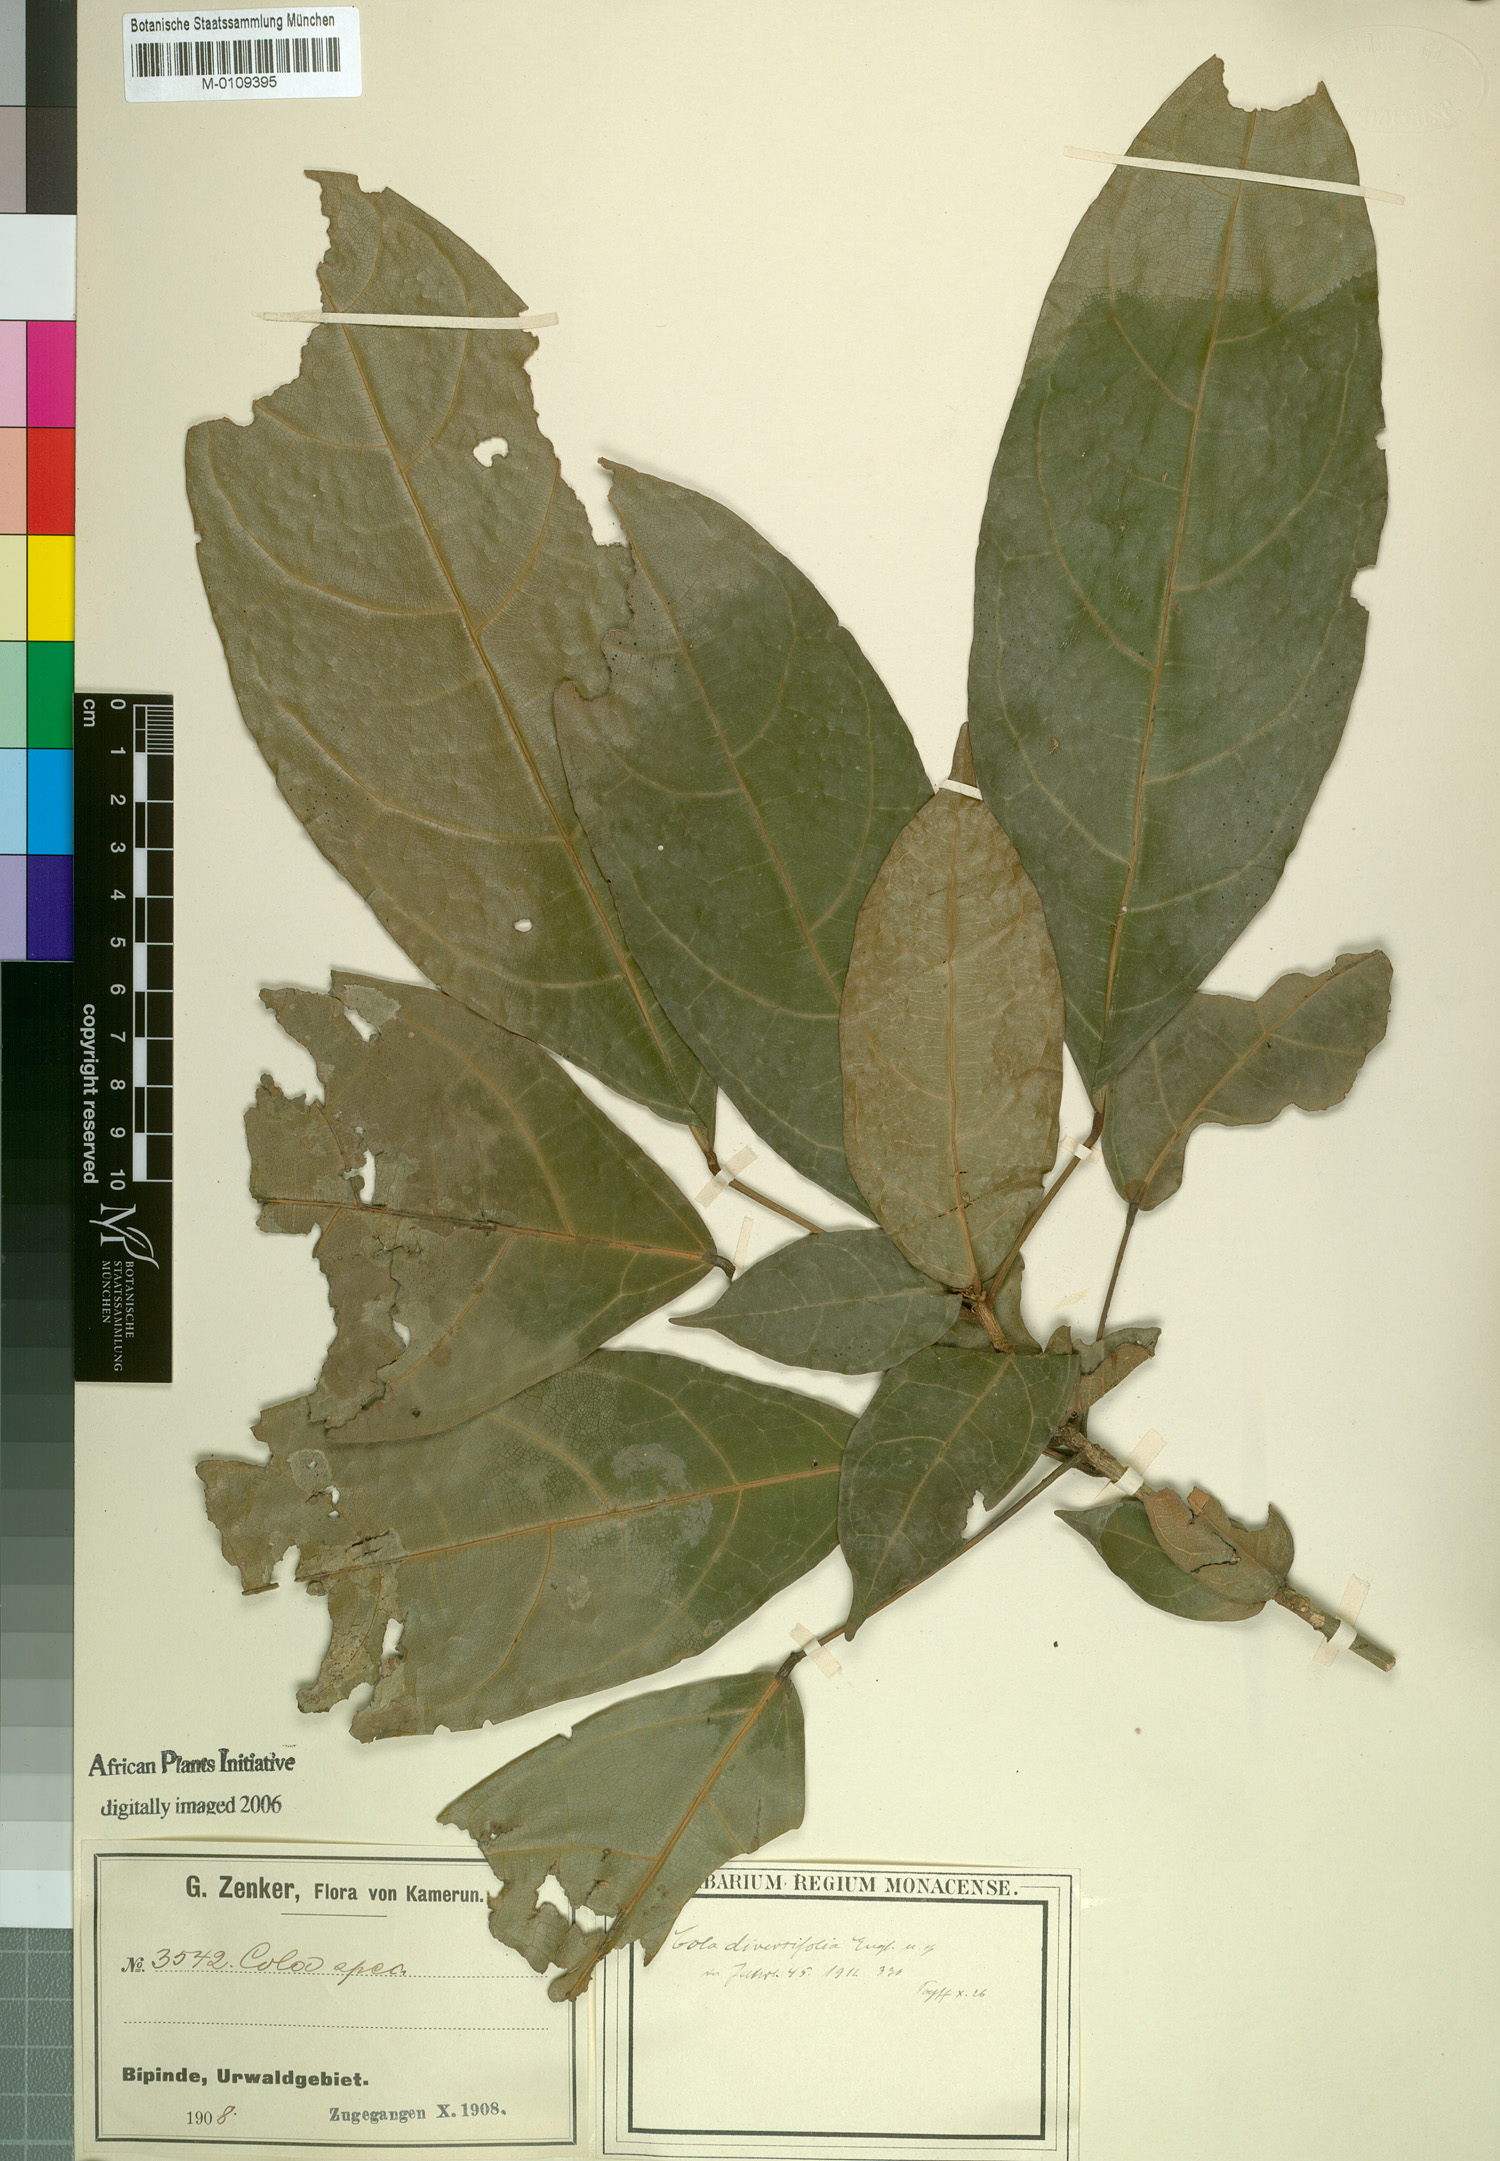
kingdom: Plantae
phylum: Tracheophyta
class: Magnoliopsida
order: Malvales
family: Malvaceae
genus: Cola
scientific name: Cola diversifolia
